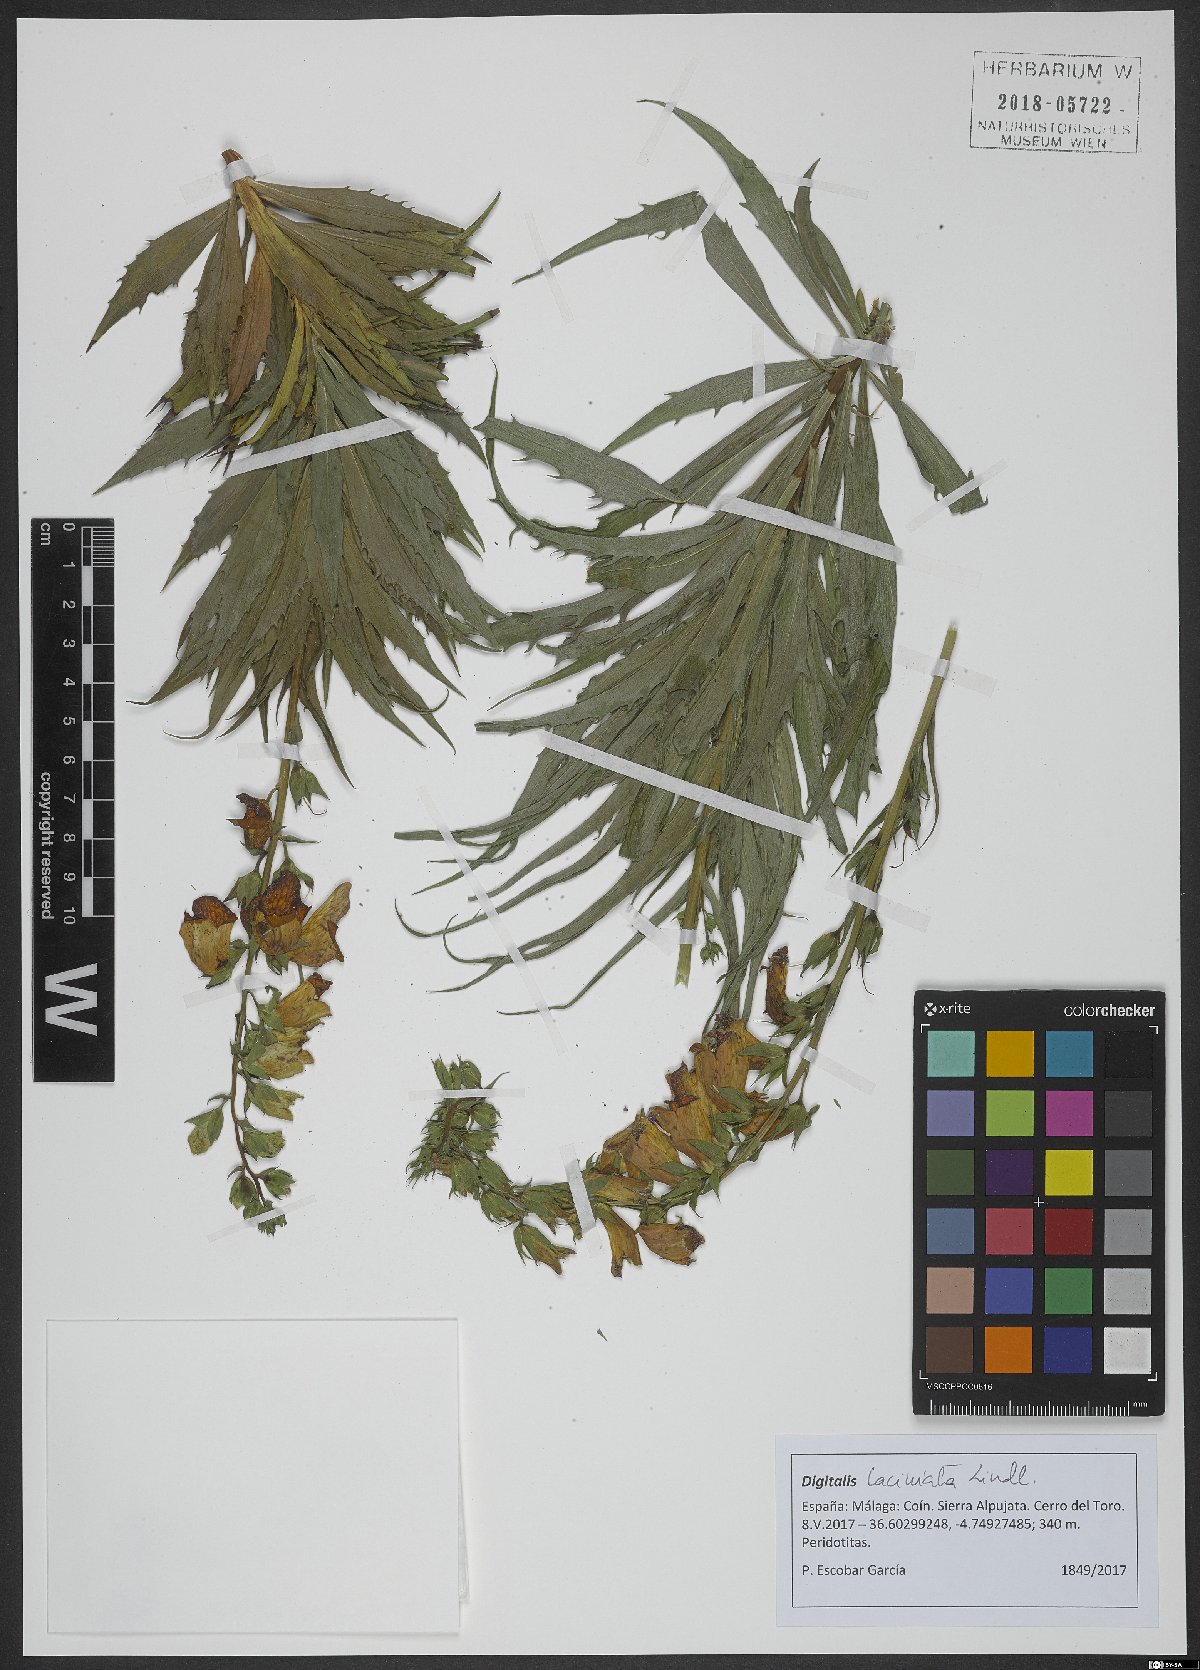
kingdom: Plantae
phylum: Tracheophyta
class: Magnoliopsida
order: Lamiales
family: Plantaginaceae
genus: Digitalis
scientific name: Digitalis obscura
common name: Willow-leaf foxglove
